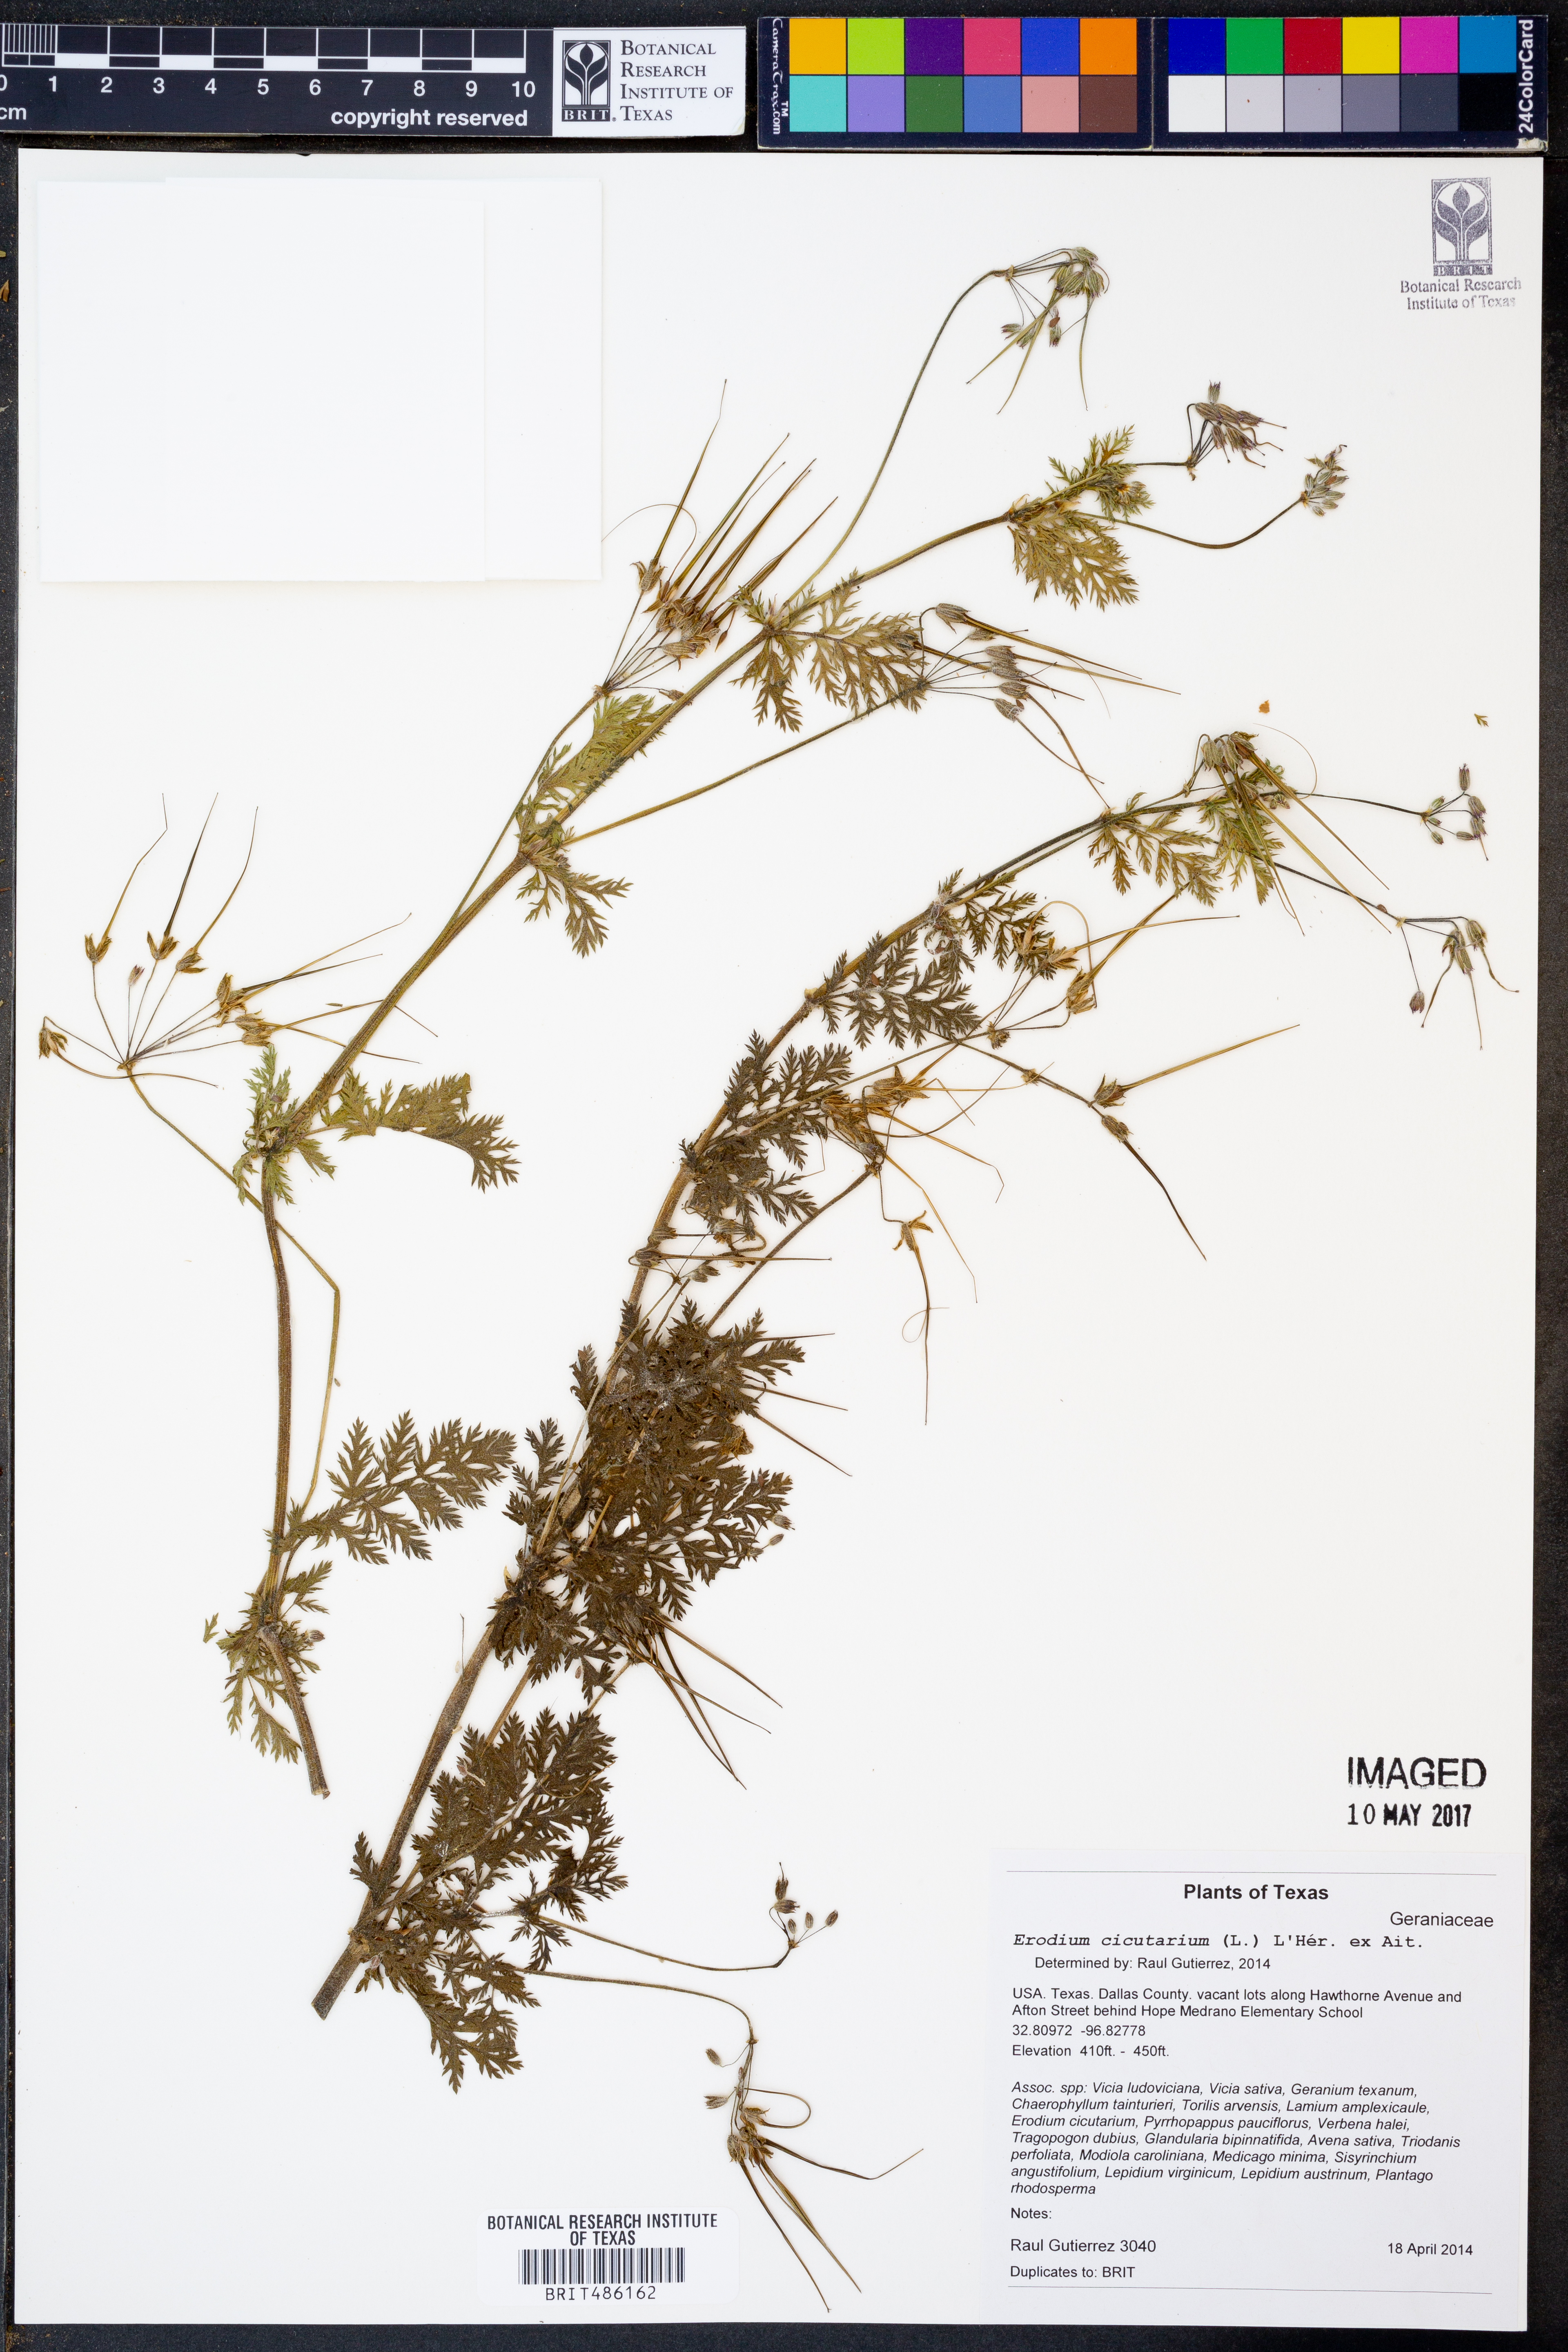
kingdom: Plantae
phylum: Tracheophyta
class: Magnoliopsida
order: Geraniales
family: Geraniaceae
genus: Erodium
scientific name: Erodium cicutarium
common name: Common stork's-bill
